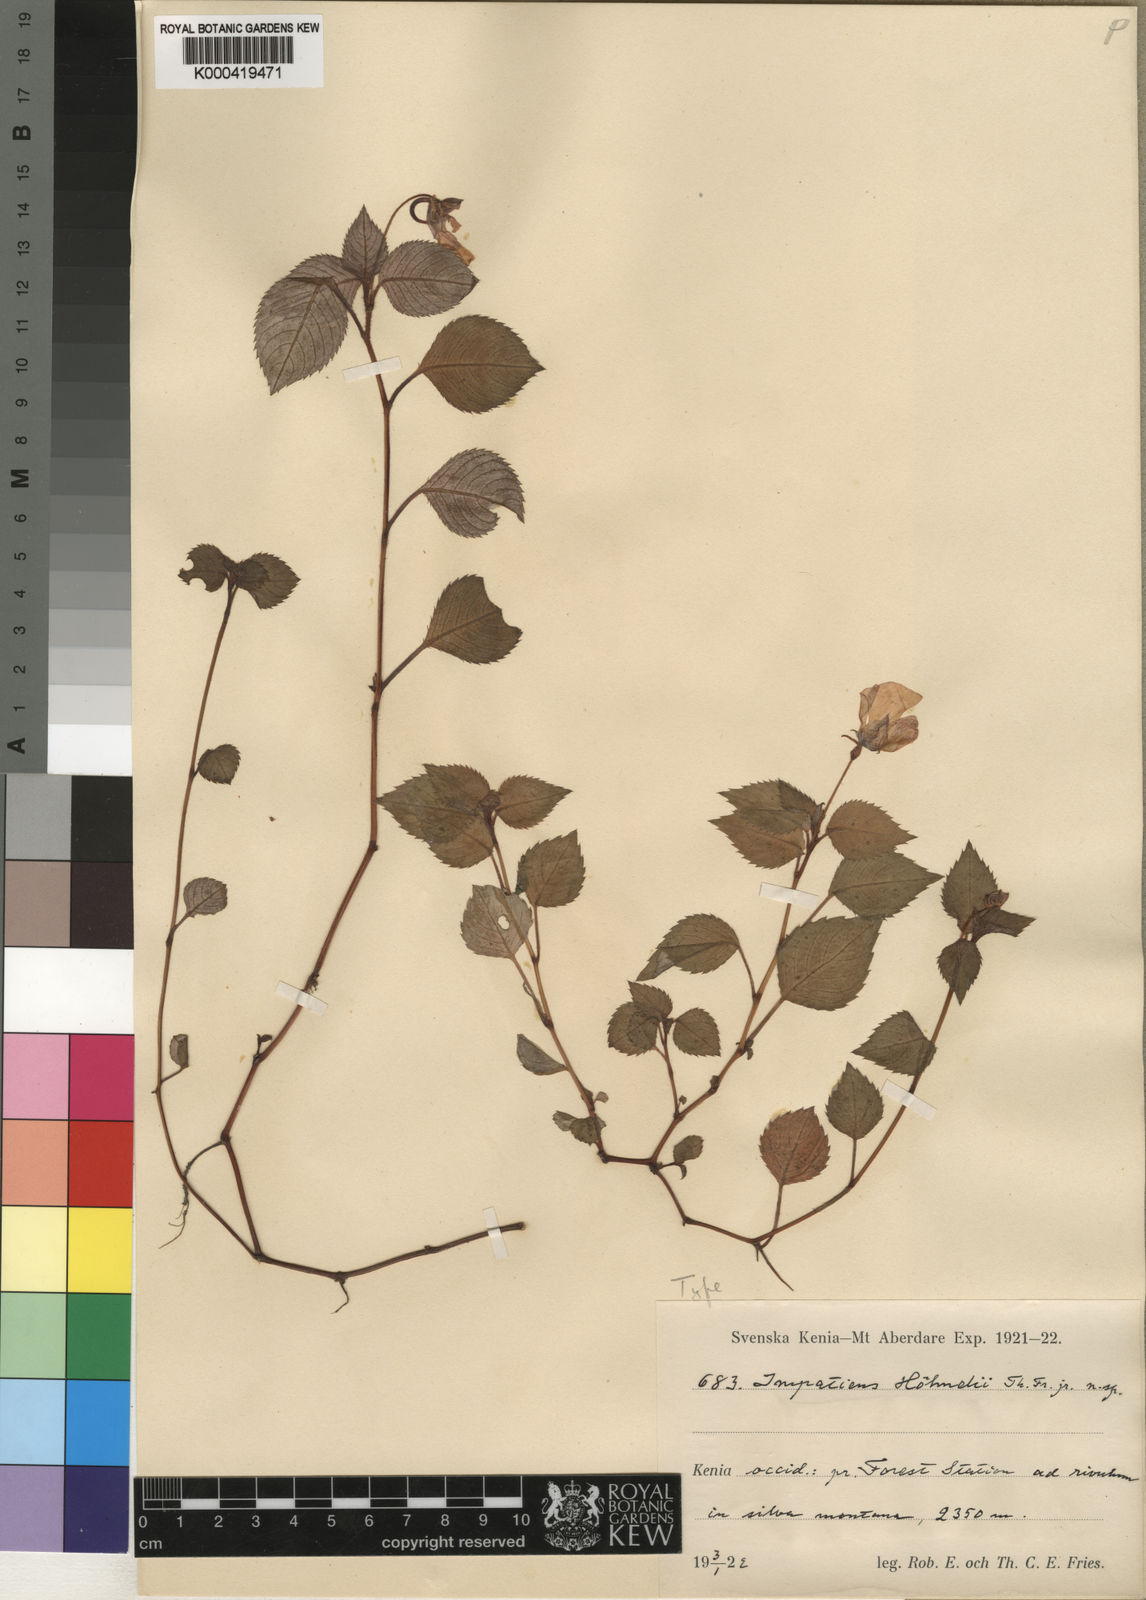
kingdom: Plantae
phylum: Tracheophyta
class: Magnoliopsida
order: Ericales
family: Balsaminaceae
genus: Impatiens
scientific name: Impatiens hoehnelii
